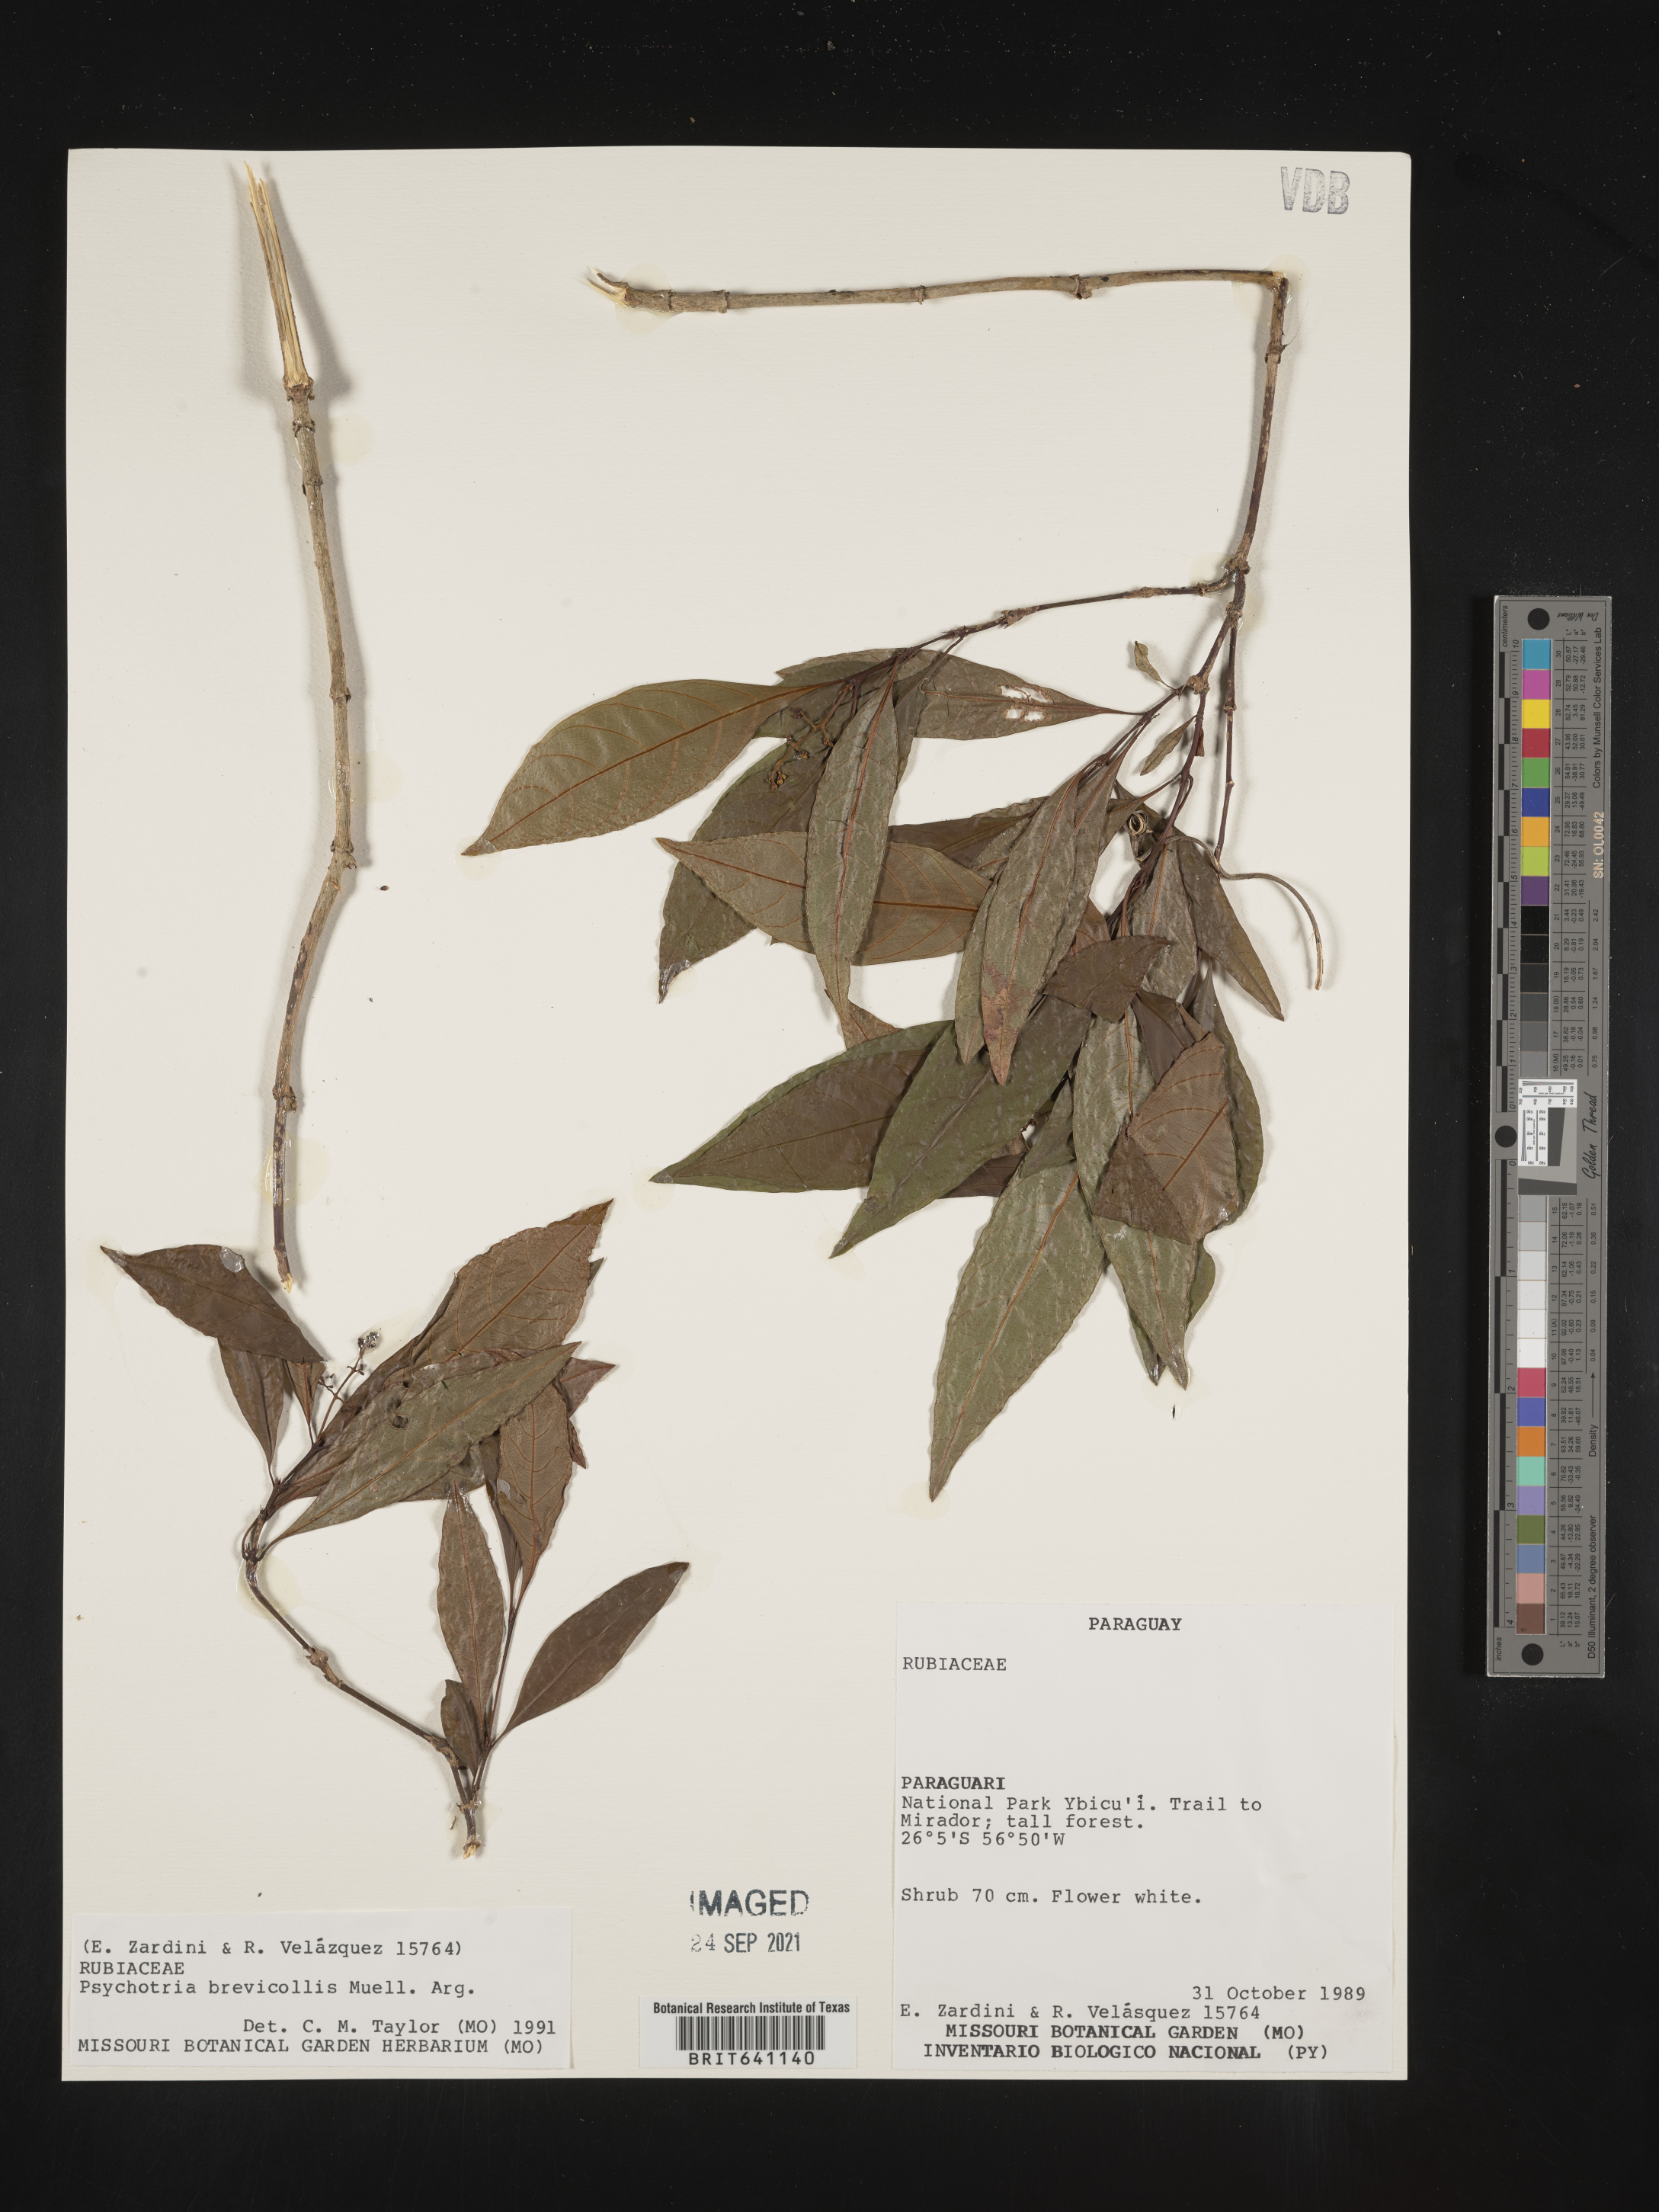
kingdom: Plantae
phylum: Tracheophyta
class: Magnoliopsida
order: Gentianales
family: Rubiaceae
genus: Psychotria
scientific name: Psychotria
